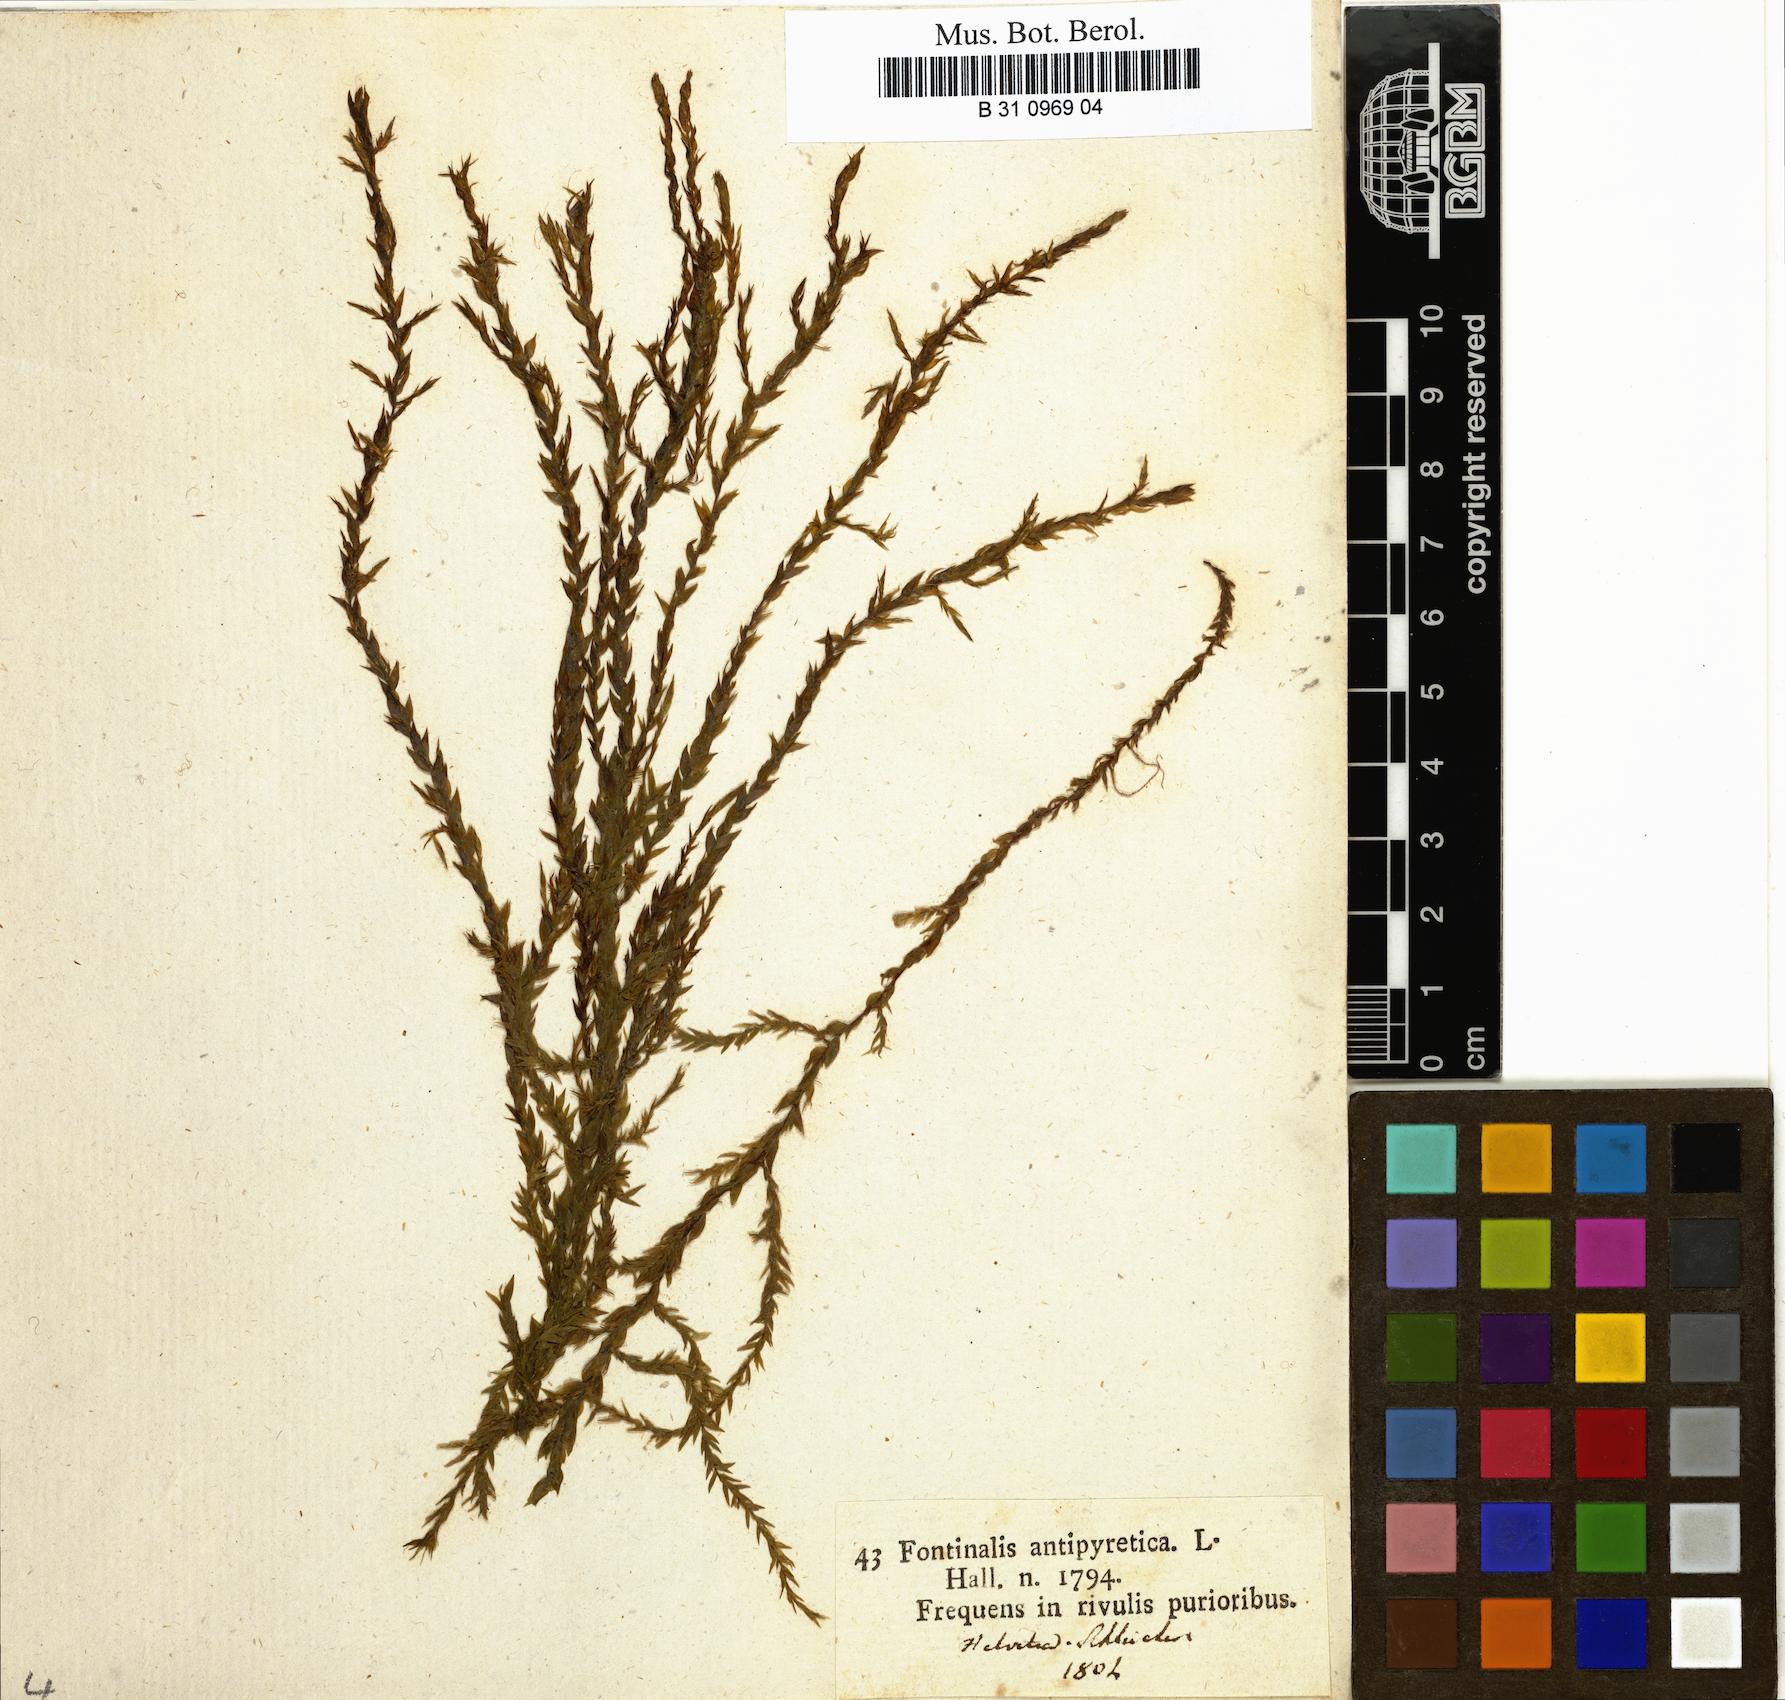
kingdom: Plantae
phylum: Bryophyta
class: Bryopsida
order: Hypnales
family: Fontinalaceae
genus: Fontinalis
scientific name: Fontinalis antipyretica
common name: Greater water-moss
